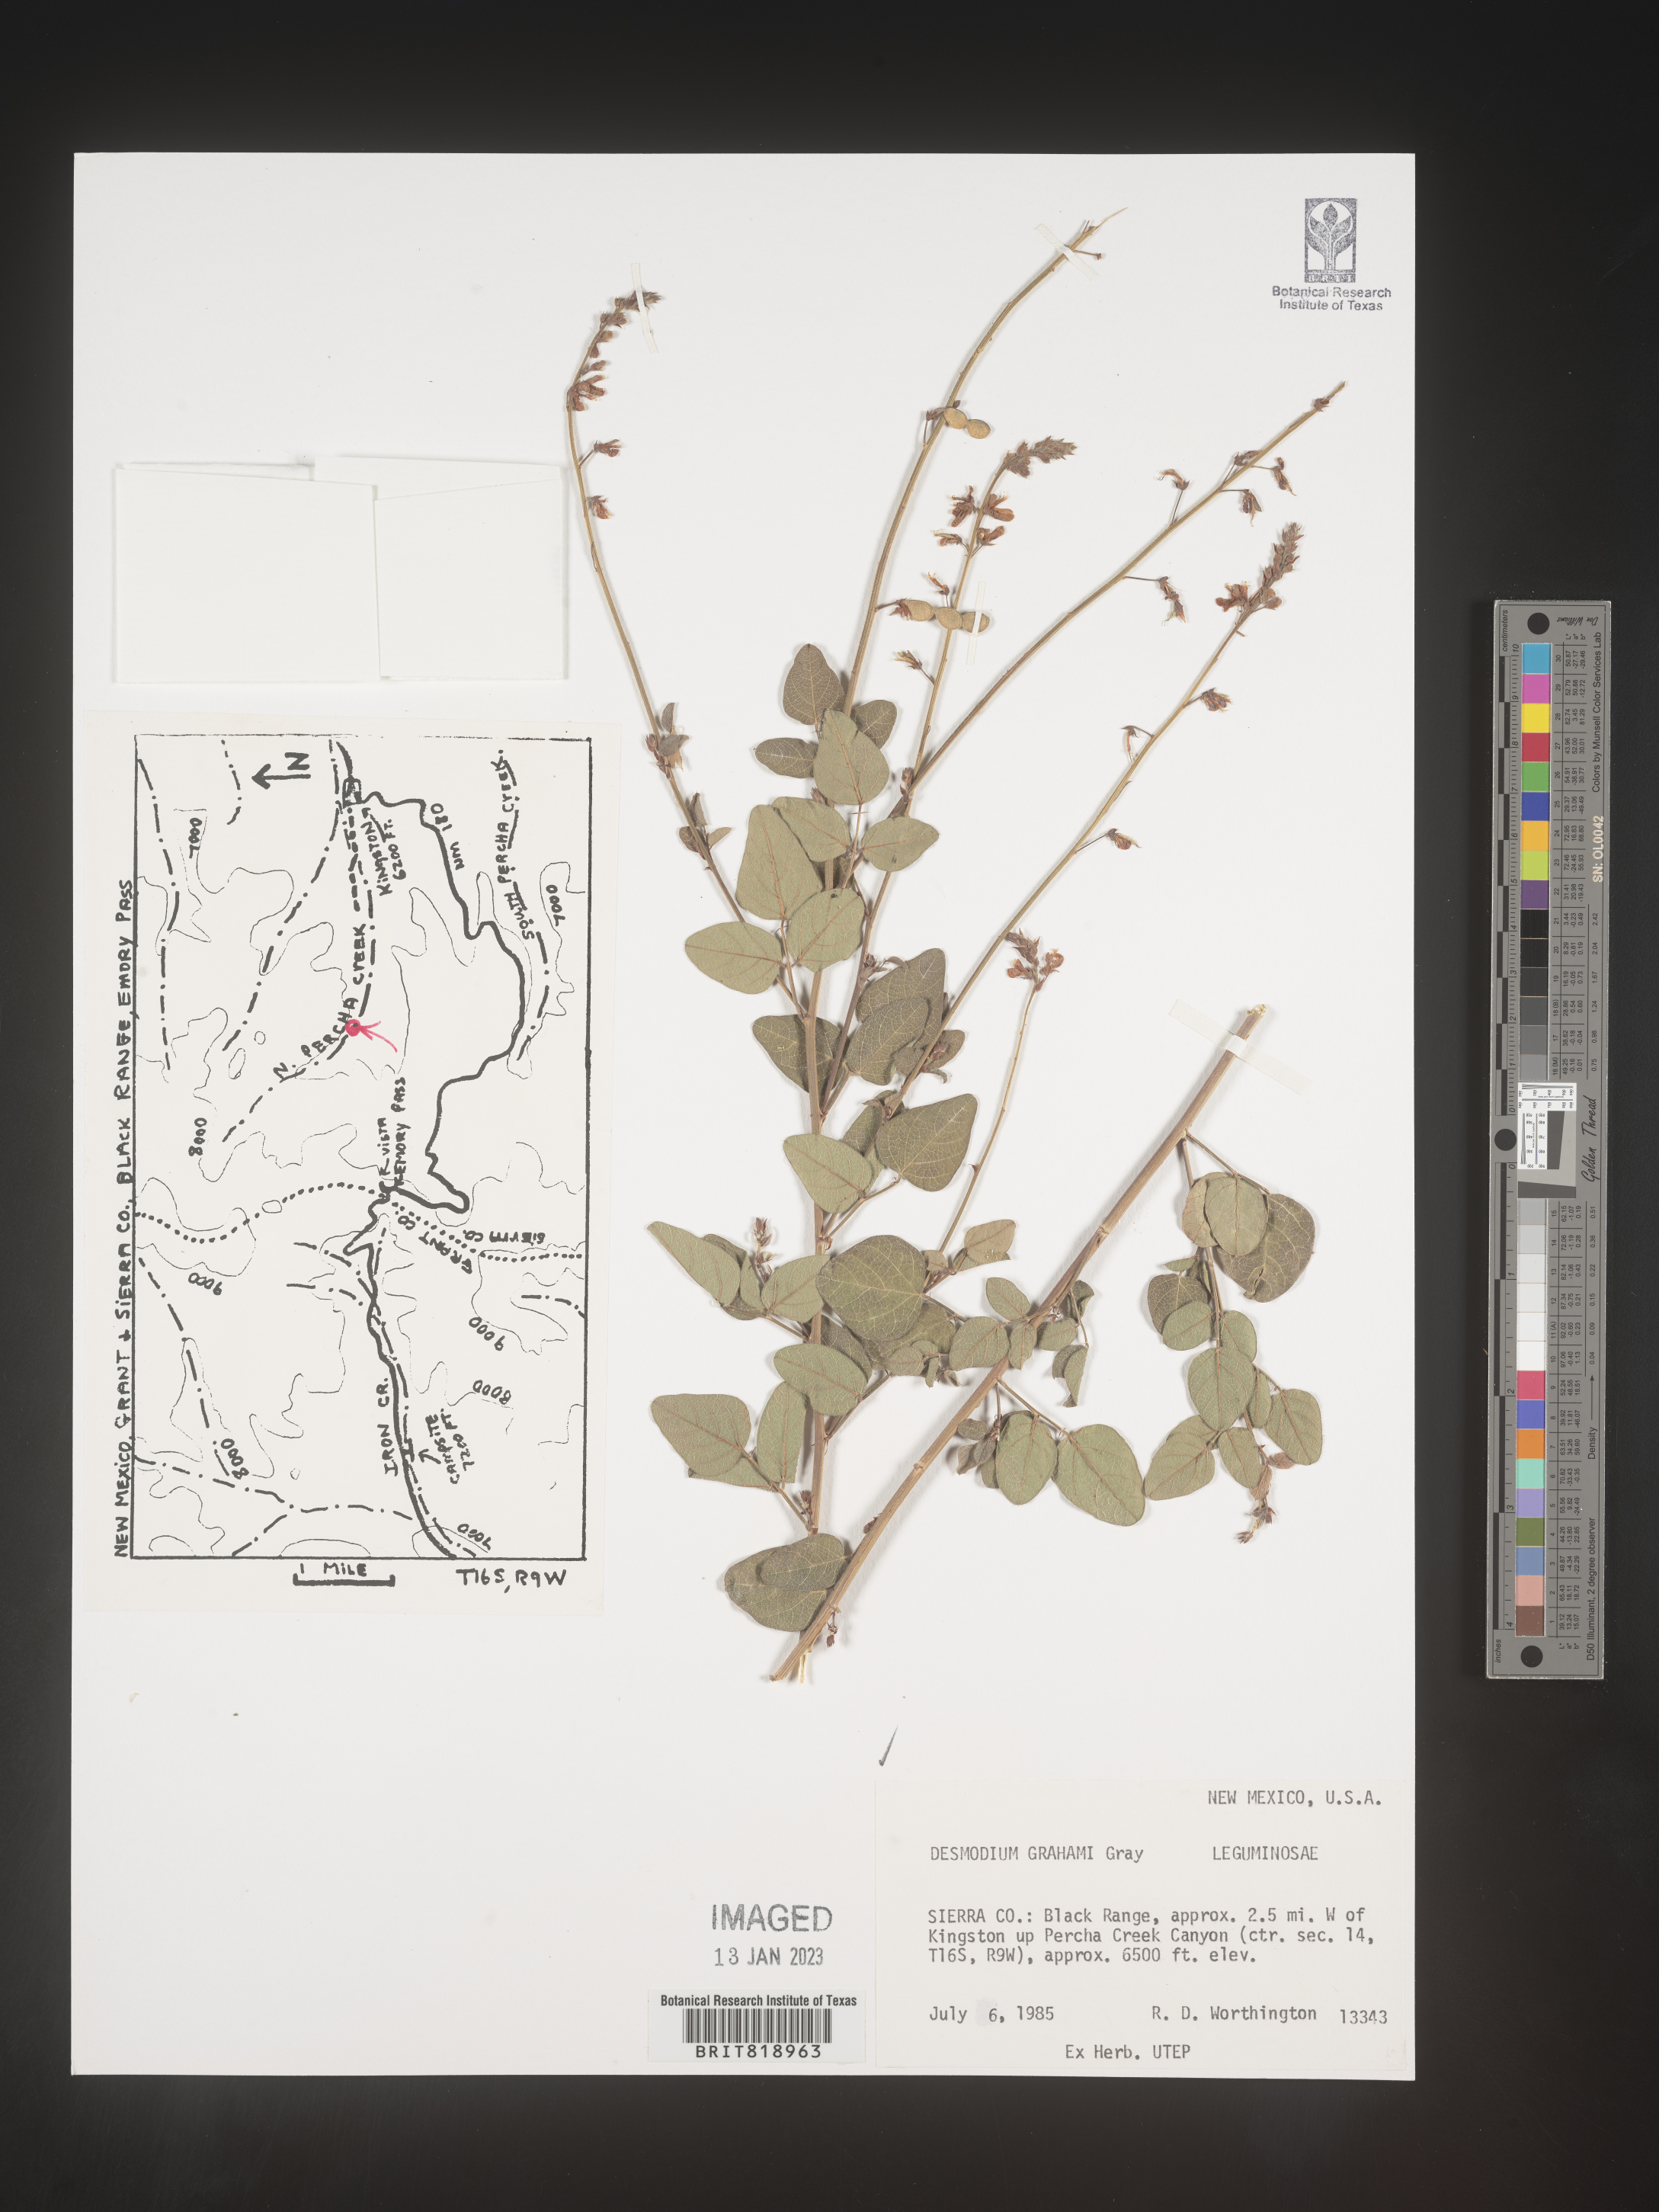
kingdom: Plantae
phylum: Tracheophyta
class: Magnoliopsida
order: Fabales
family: Fabaceae
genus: Desmodium
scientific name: Desmodium
